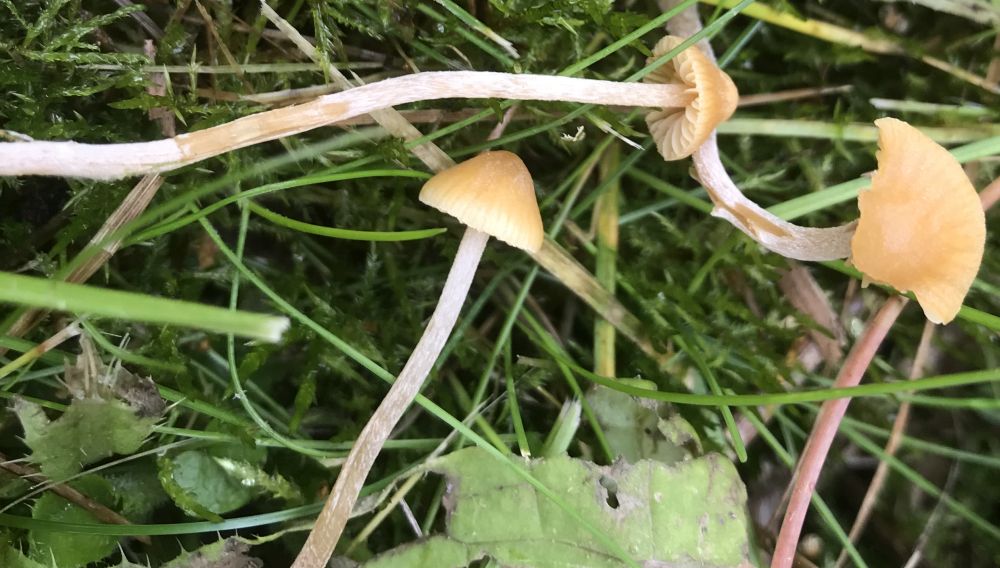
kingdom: Fungi
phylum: Basidiomycota
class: Agaricomycetes
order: Agaricales
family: Hymenogastraceae
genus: Galerina
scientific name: Galerina clavata
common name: kær-hjelmhat
